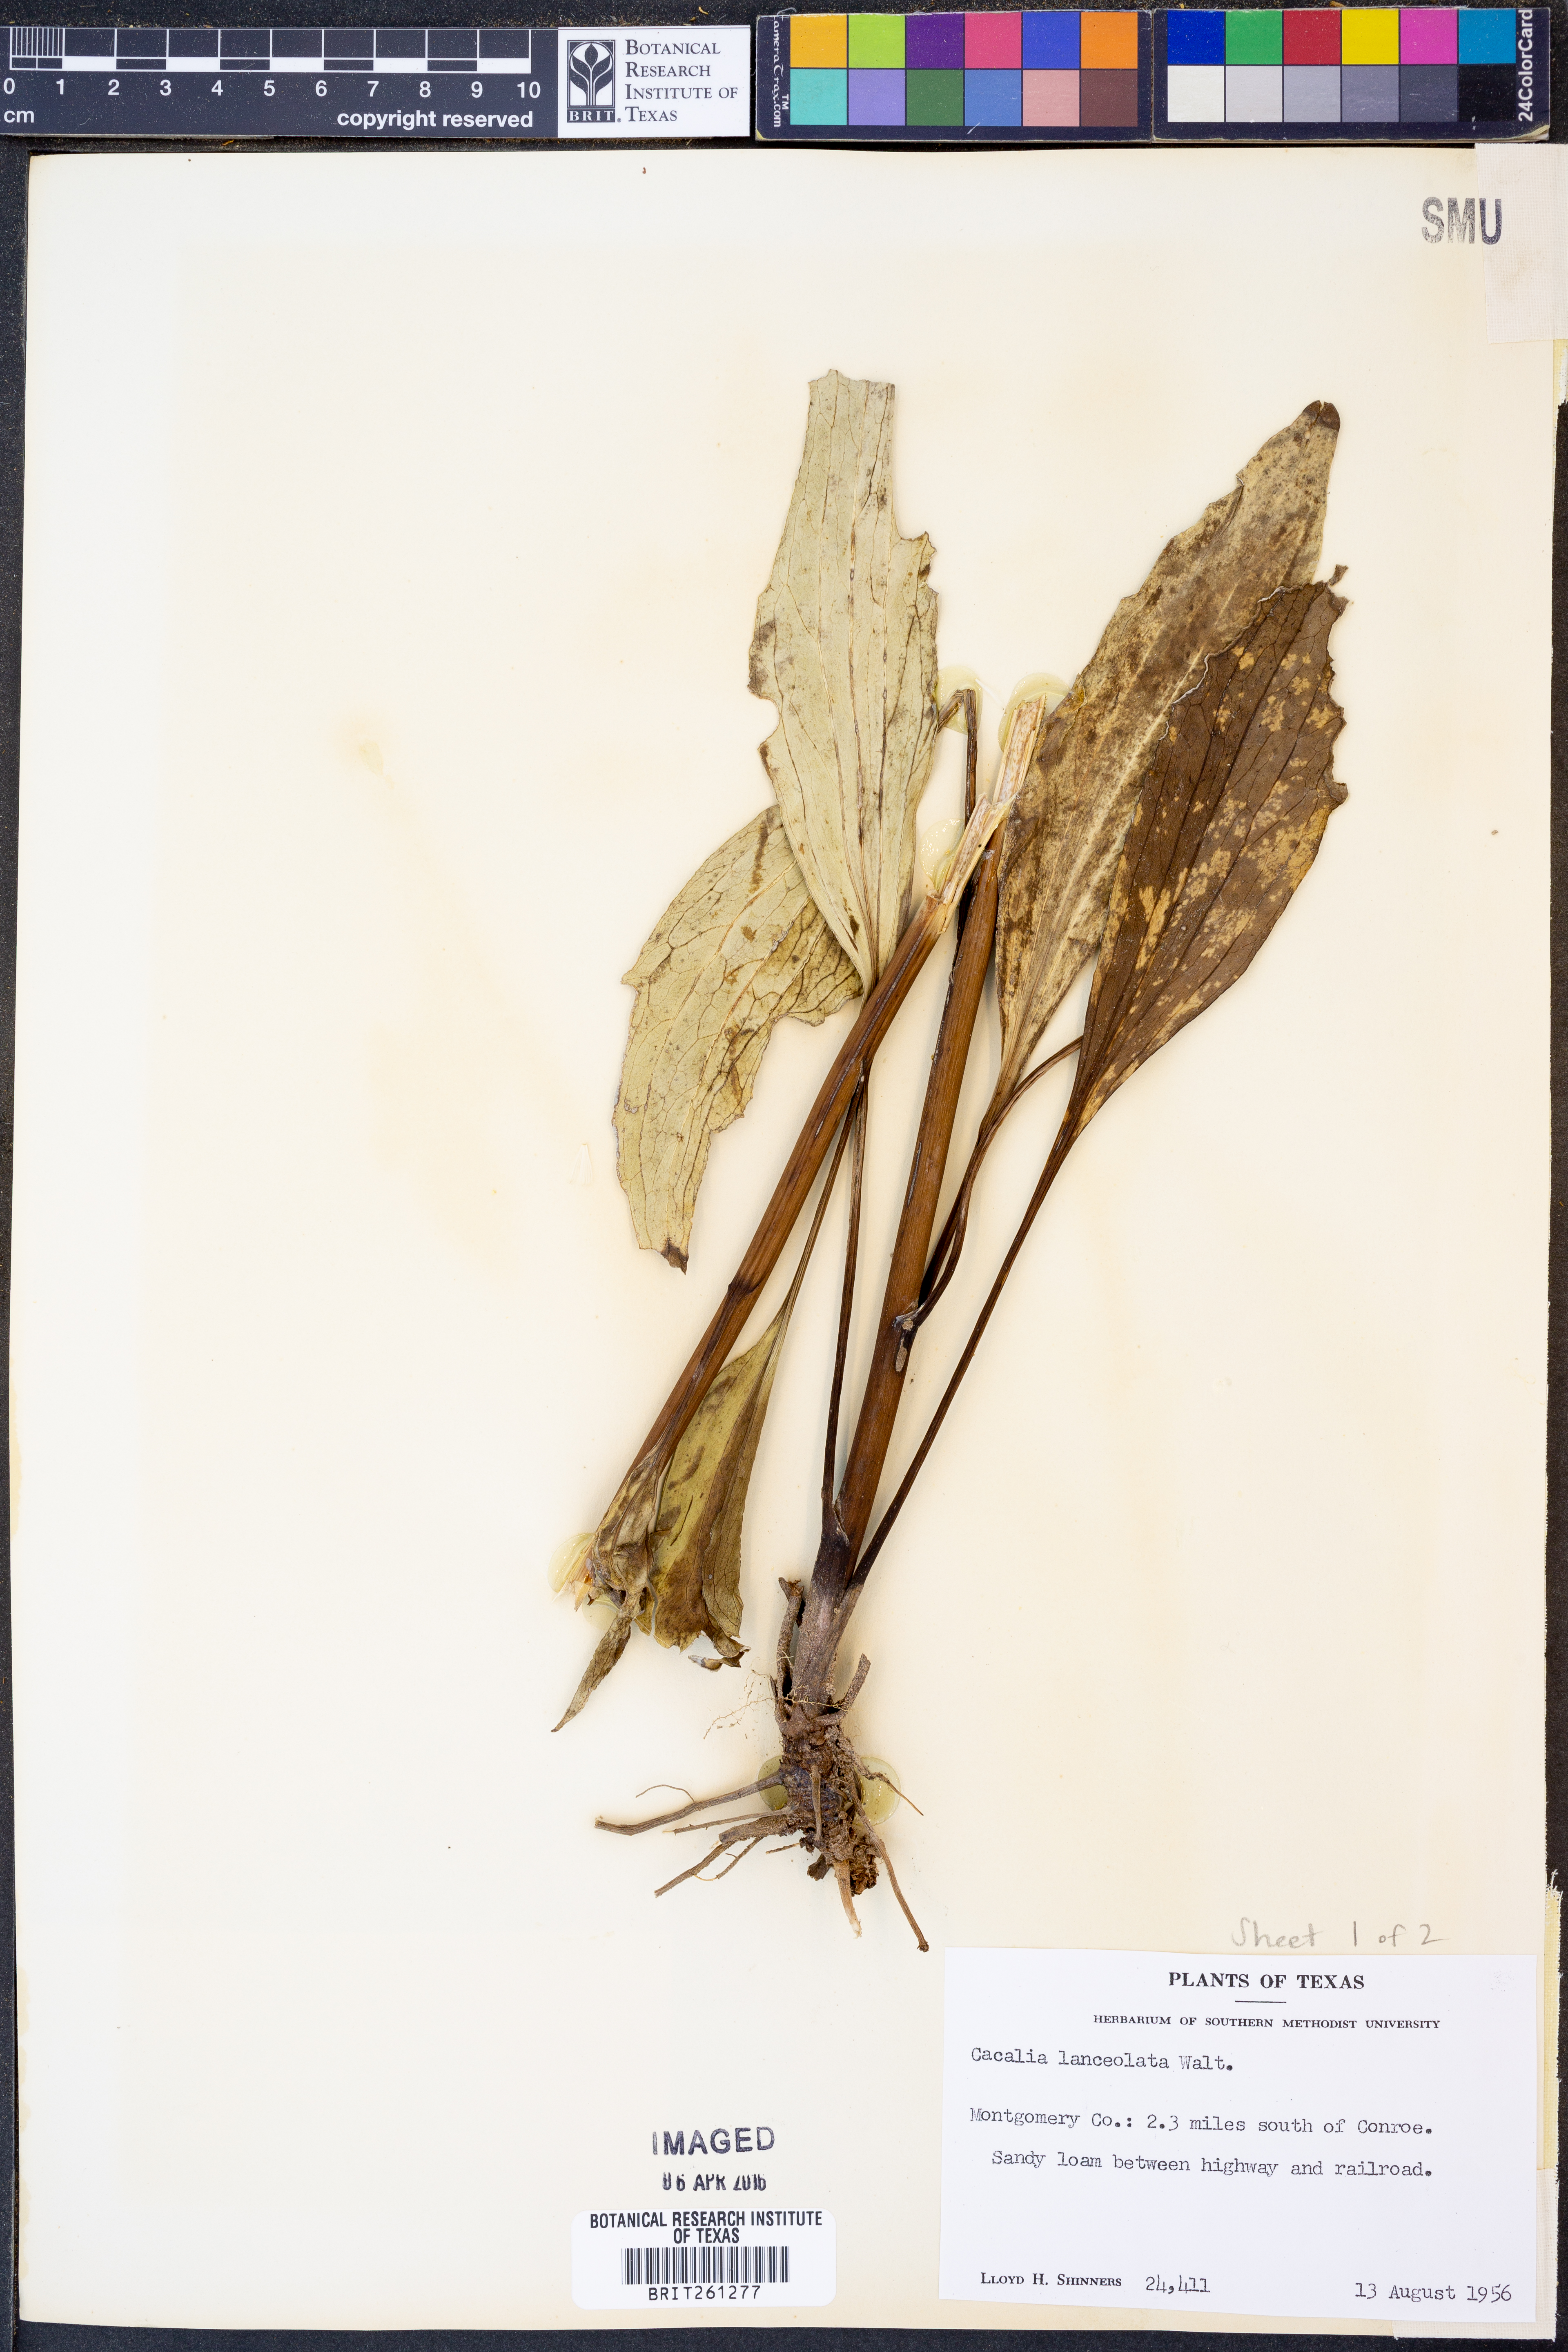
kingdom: Plantae
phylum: Tracheophyta
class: Magnoliopsida
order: Asterales
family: Asteraceae
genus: Arnoglossum
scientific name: Arnoglossum ovatum
